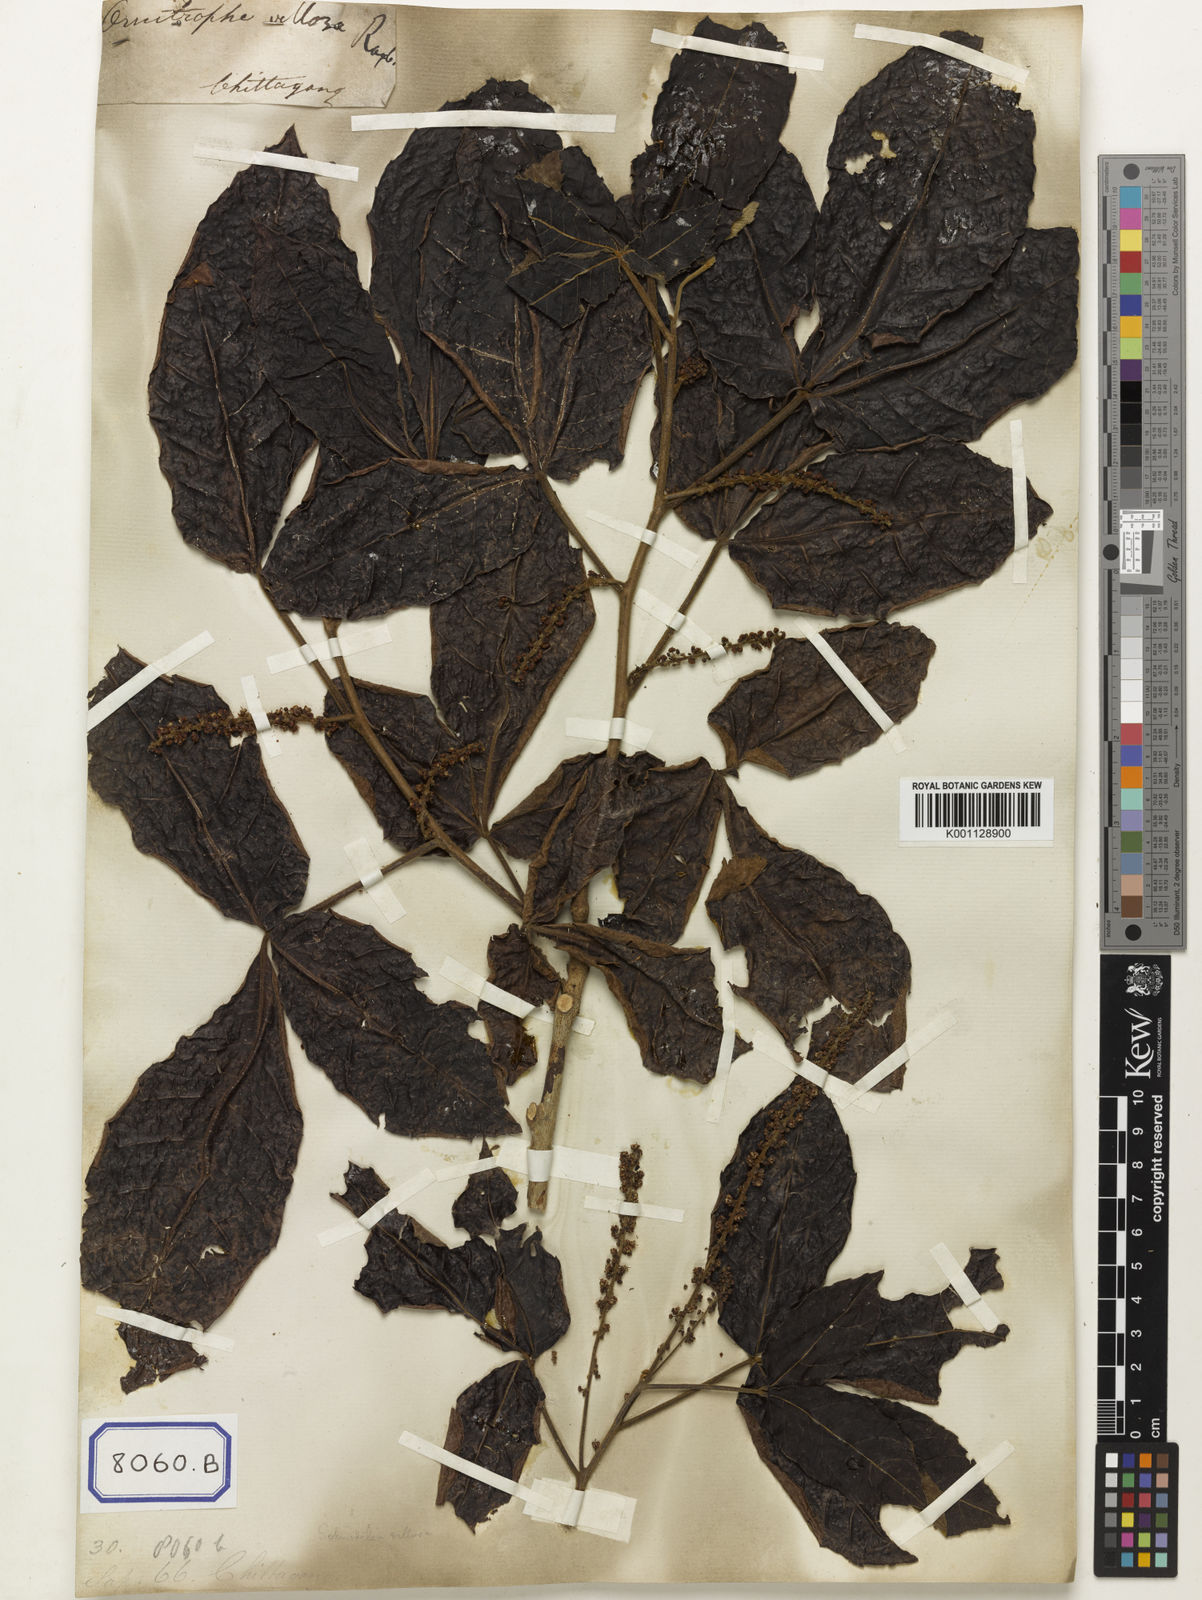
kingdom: Plantae
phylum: Tracheophyta
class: Magnoliopsida
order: Sapindales
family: Sapindaceae
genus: Allophylus
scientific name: Allophylus villosus
